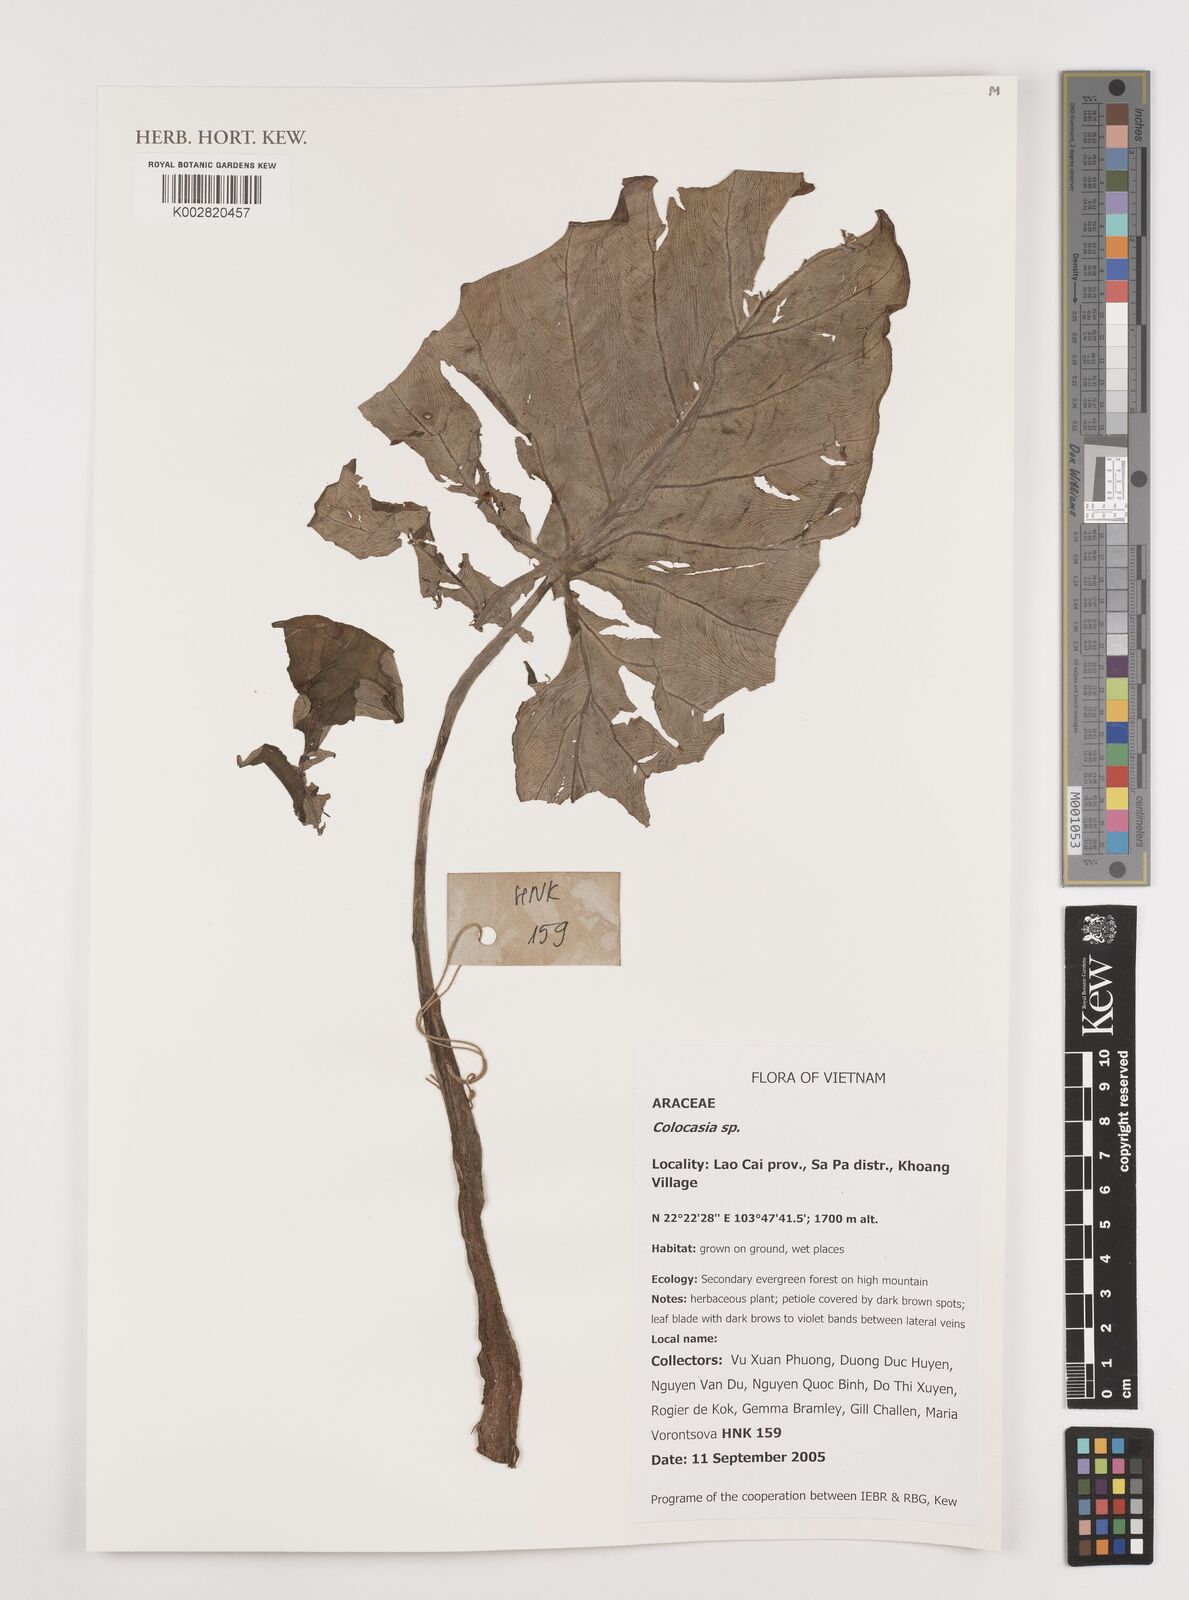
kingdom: Plantae
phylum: Tracheophyta
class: Liliopsida
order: Alismatales
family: Araceae
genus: Colocasia
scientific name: Colocasia
